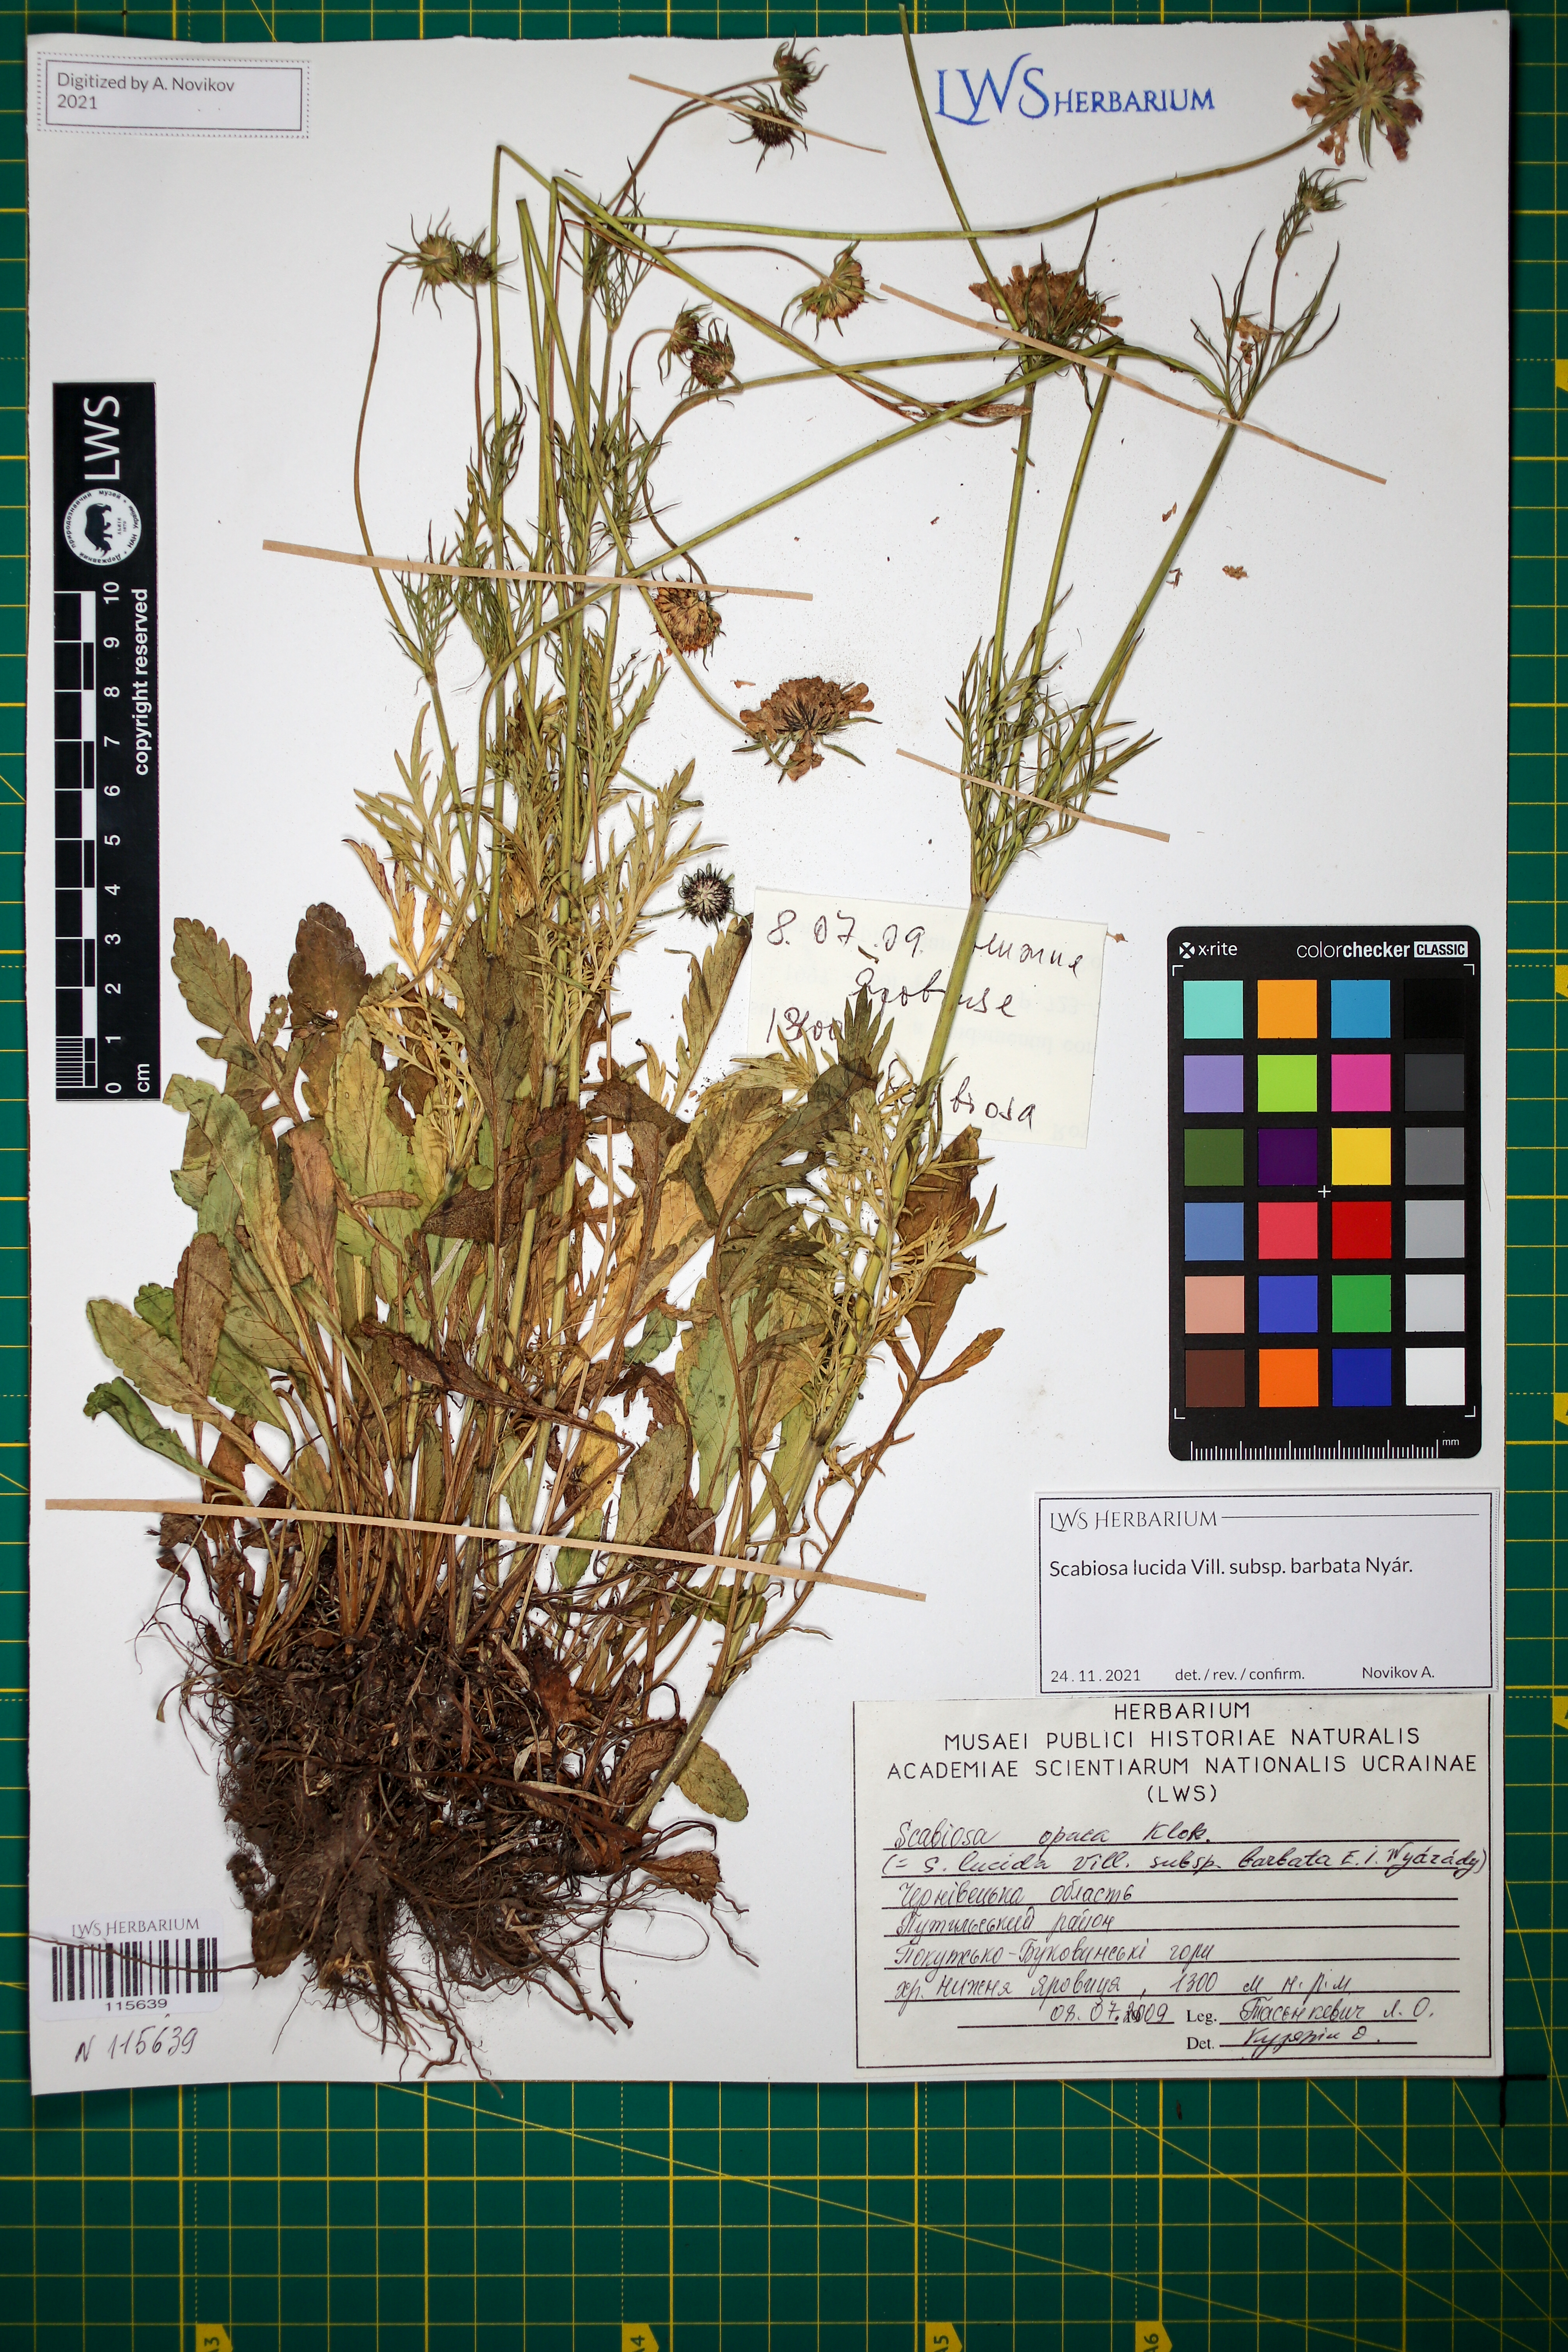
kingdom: Plantae
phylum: Tracheophyta
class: Magnoliopsida
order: Dipsacales
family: Caprifoliaceae
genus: Scabiosa
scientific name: Scabiosa lucida
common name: Shining scabious
